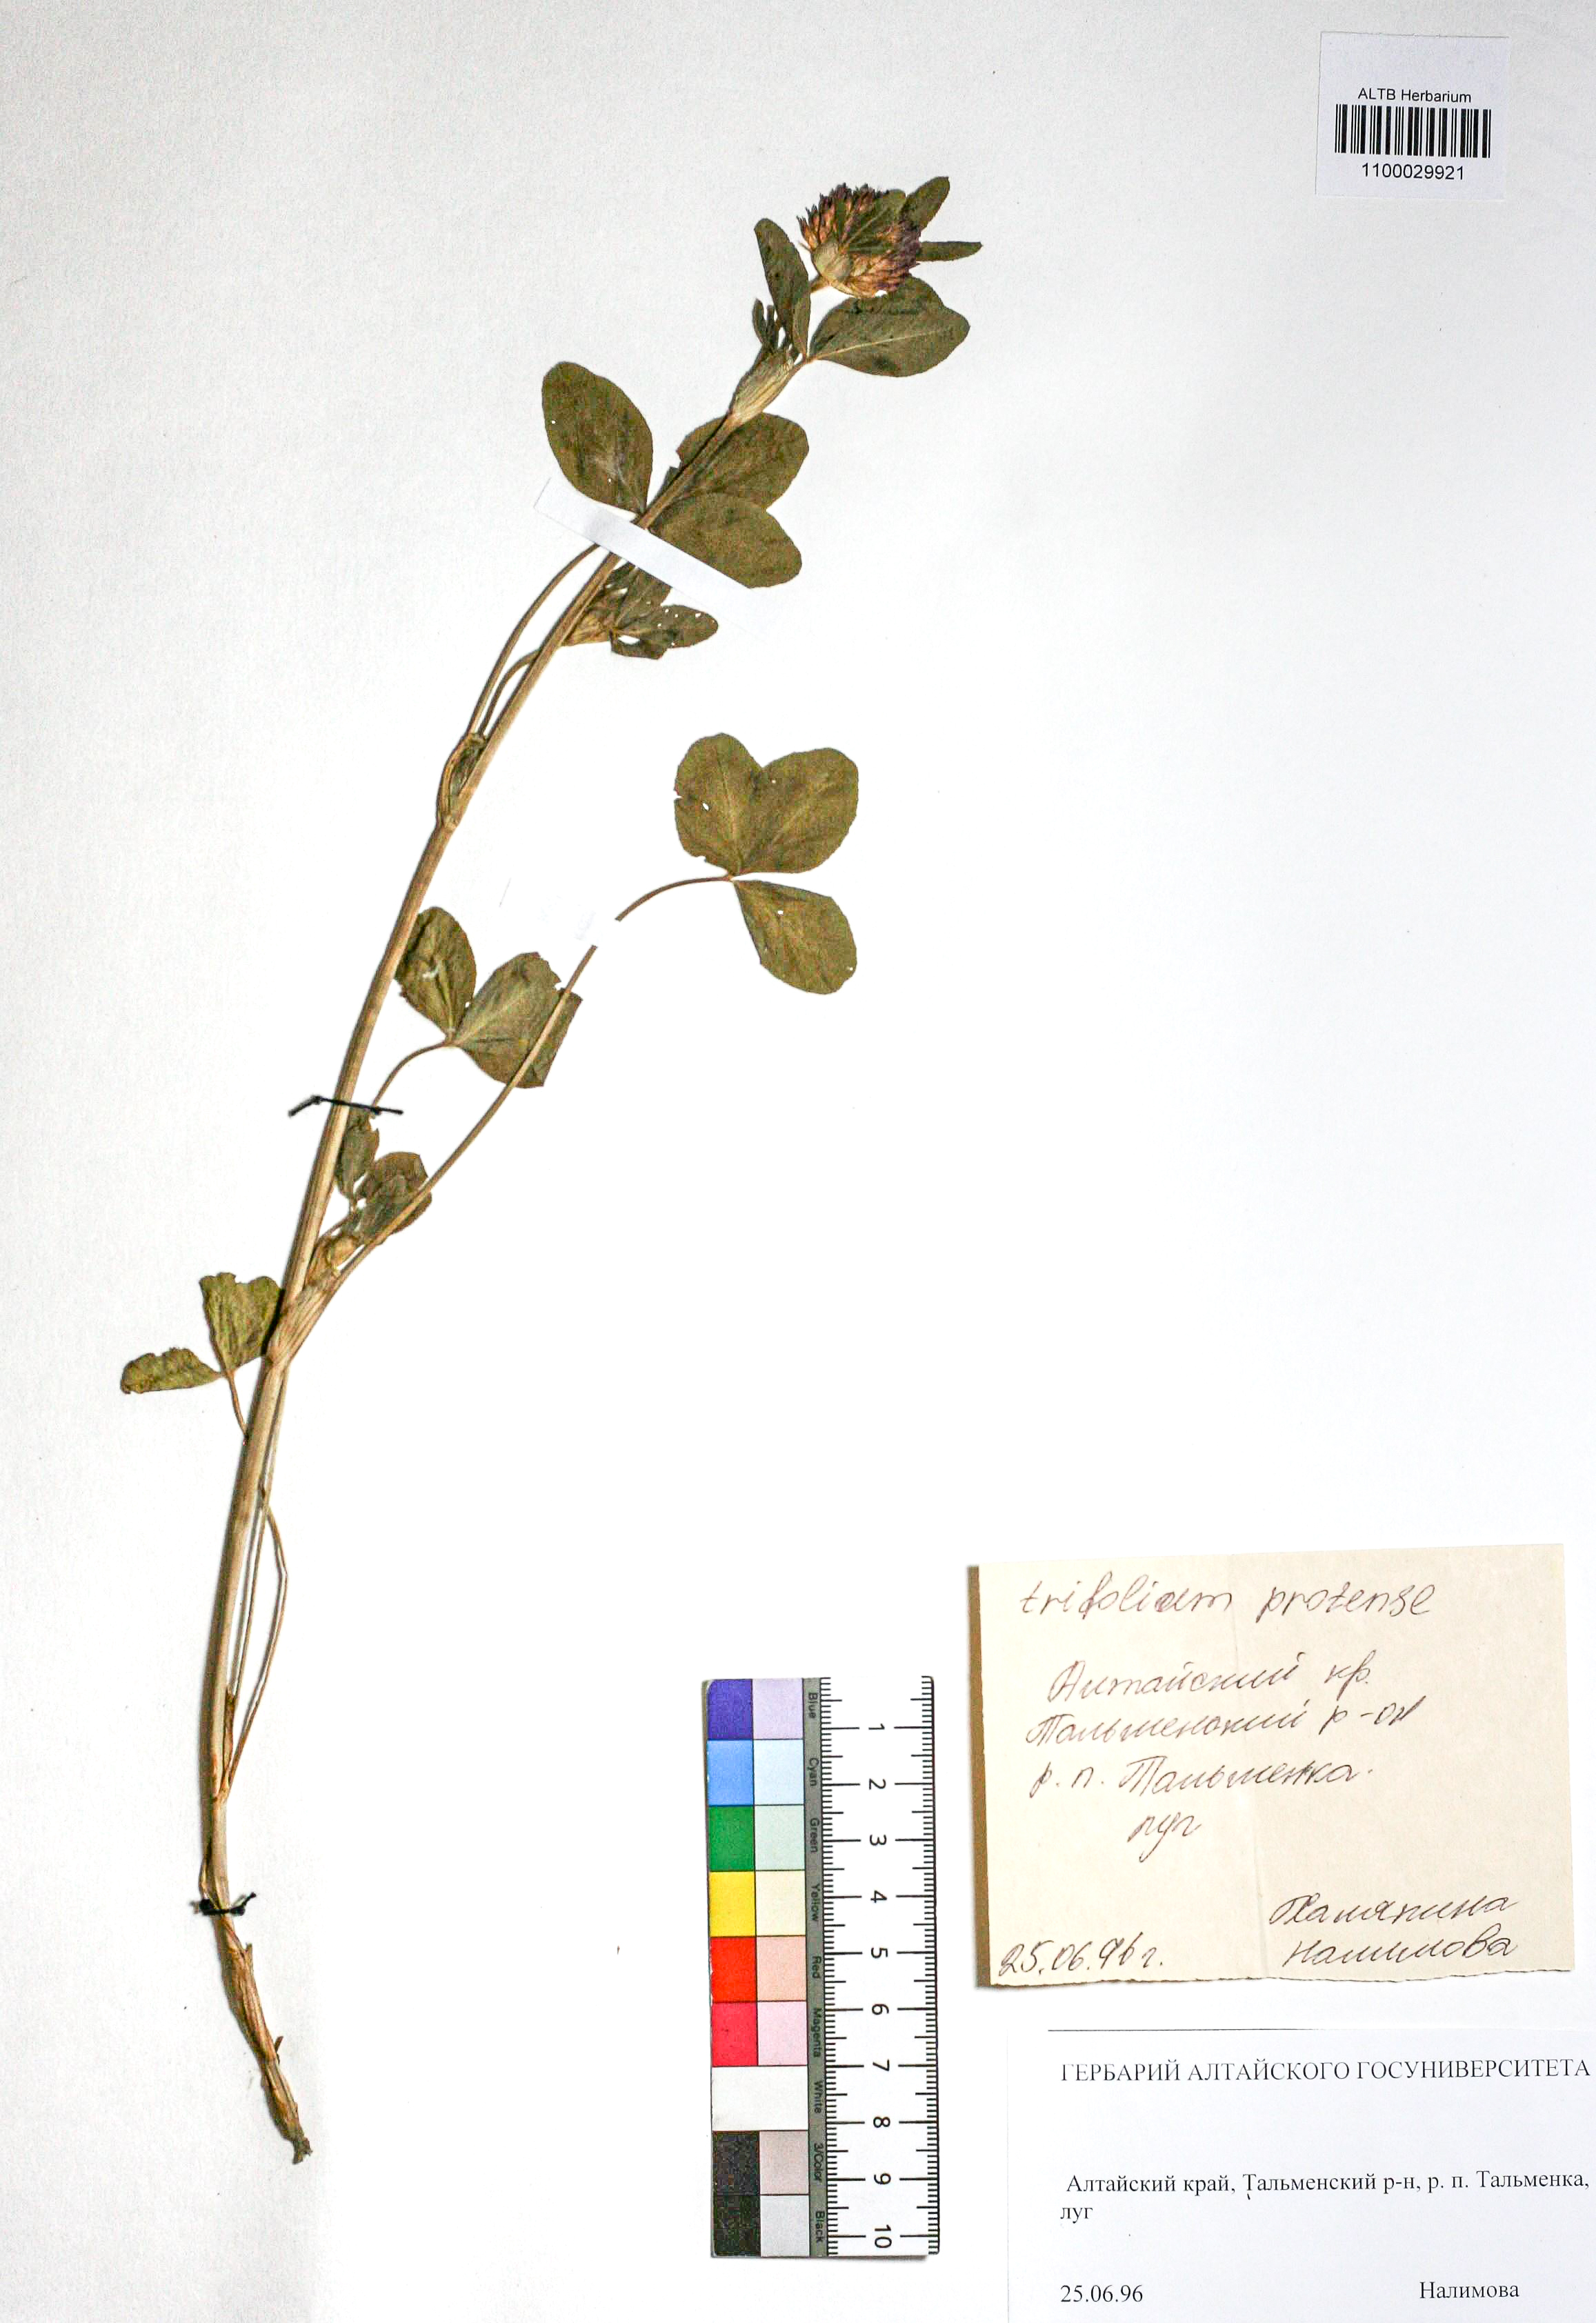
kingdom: Plantae
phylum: Tracheophyta
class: Magnoliopsida
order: Fabales
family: Fabaceae
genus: Trifolium
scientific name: Trifolium pratense
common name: Red clover
